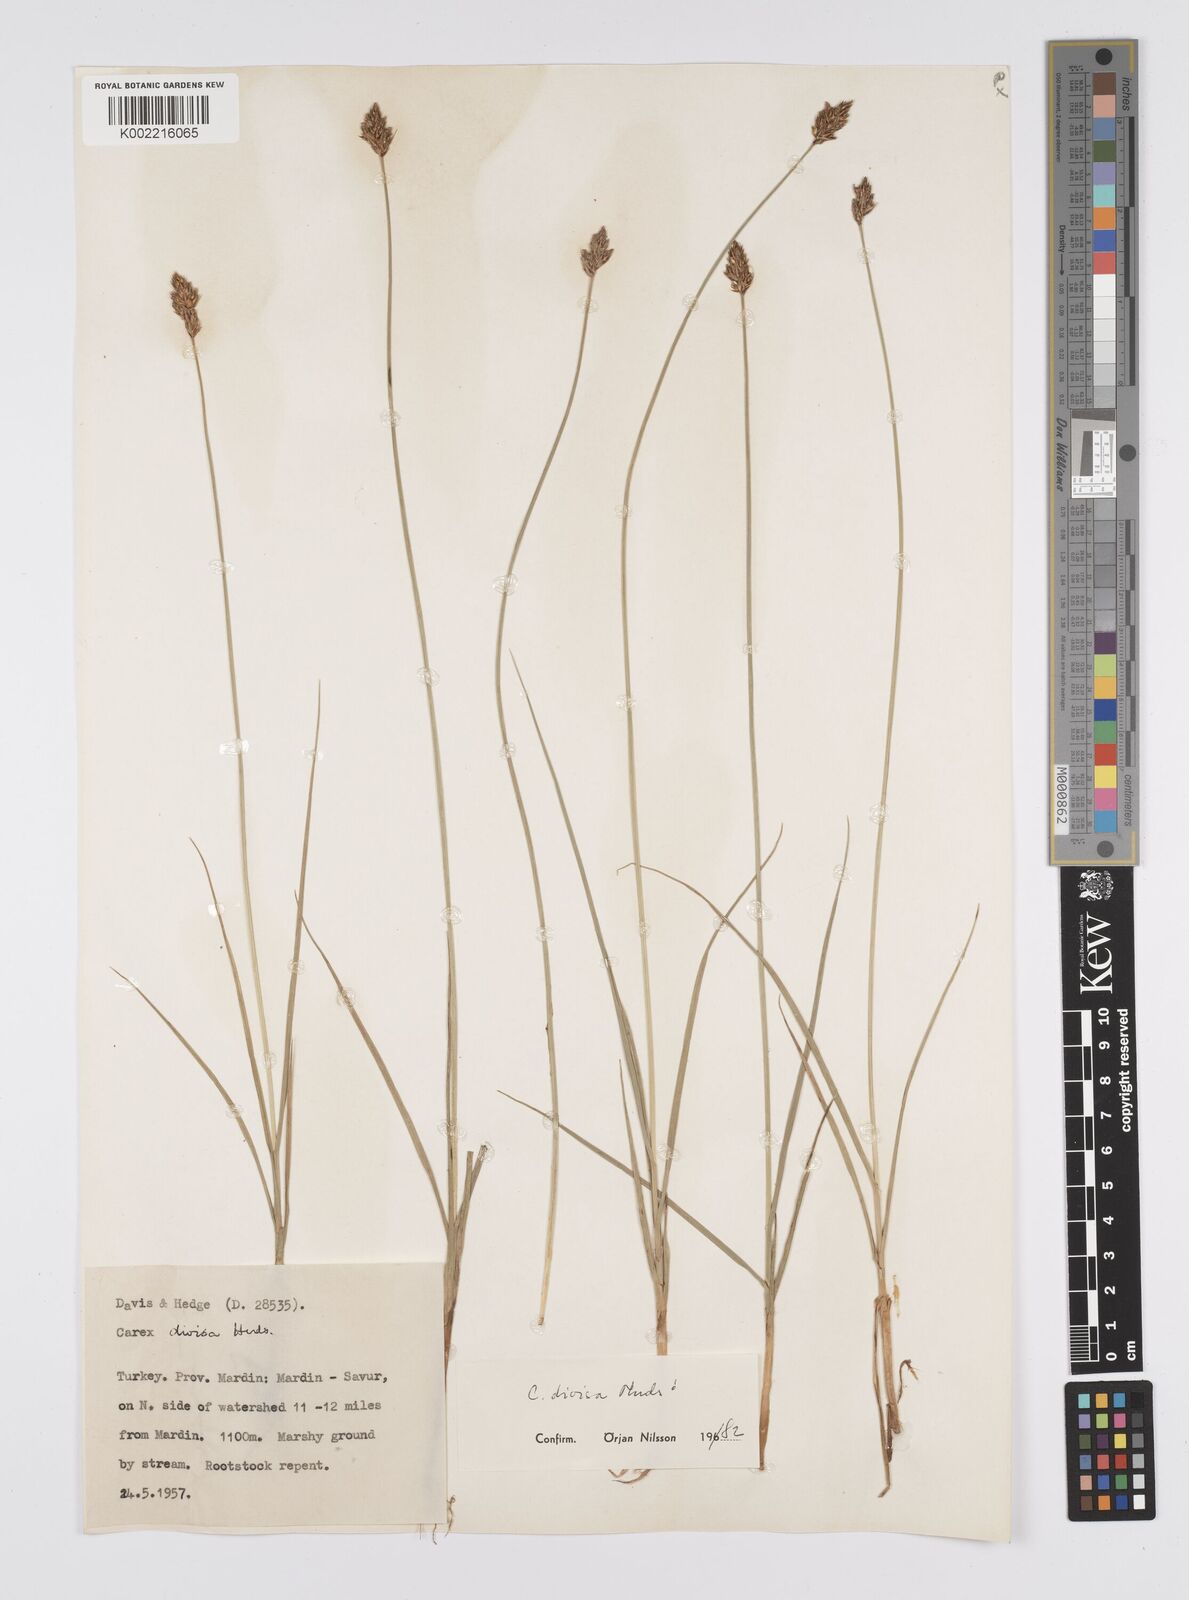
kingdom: Plantae
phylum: Tracheophyta
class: Liliopsida
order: Poales
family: Cyperaceae
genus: Carex
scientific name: Carex divisa
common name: Divided sedge
